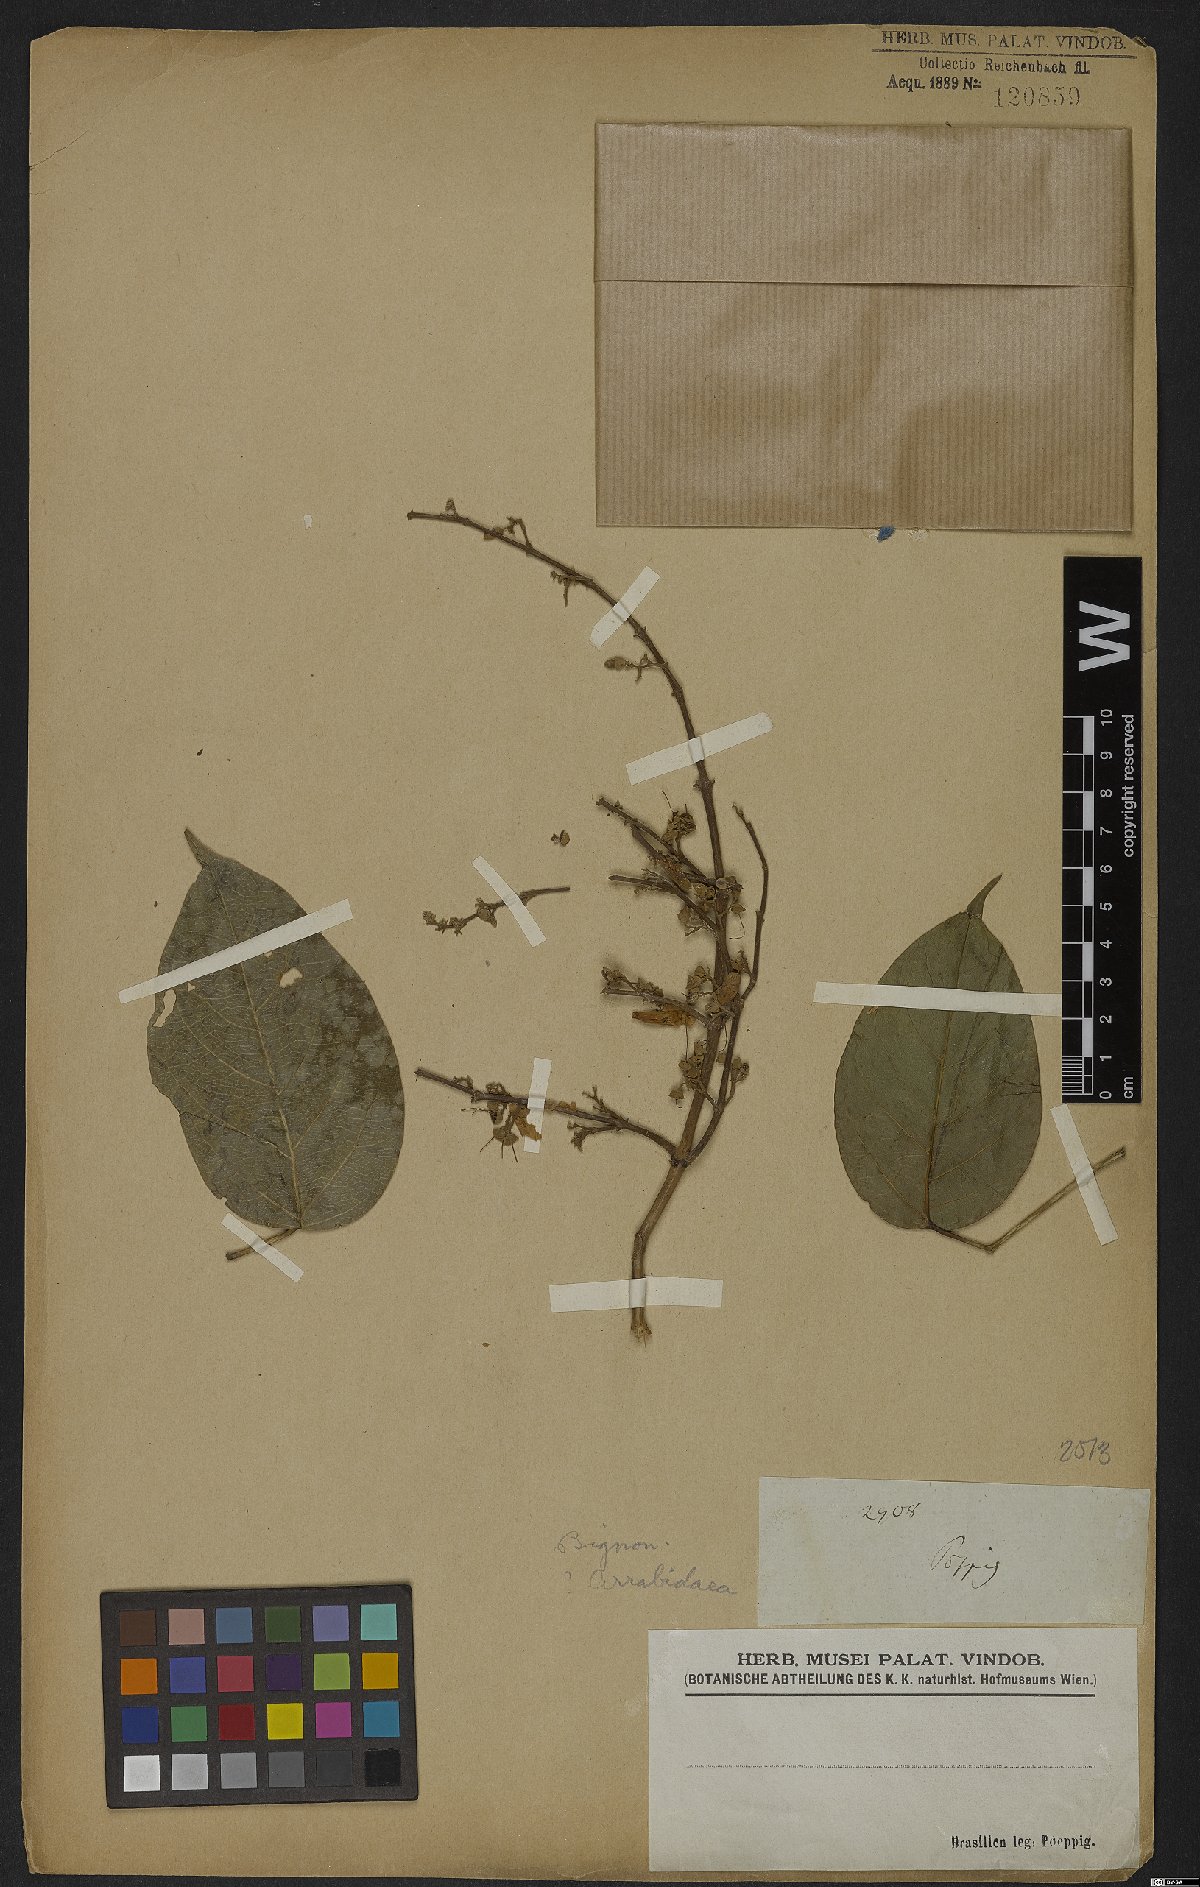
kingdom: Plantae
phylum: Tracheophyta
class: Magnoliopsida
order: Rosales
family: Rhamnaceae
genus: Arrabidaea
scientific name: Arrabidaea
